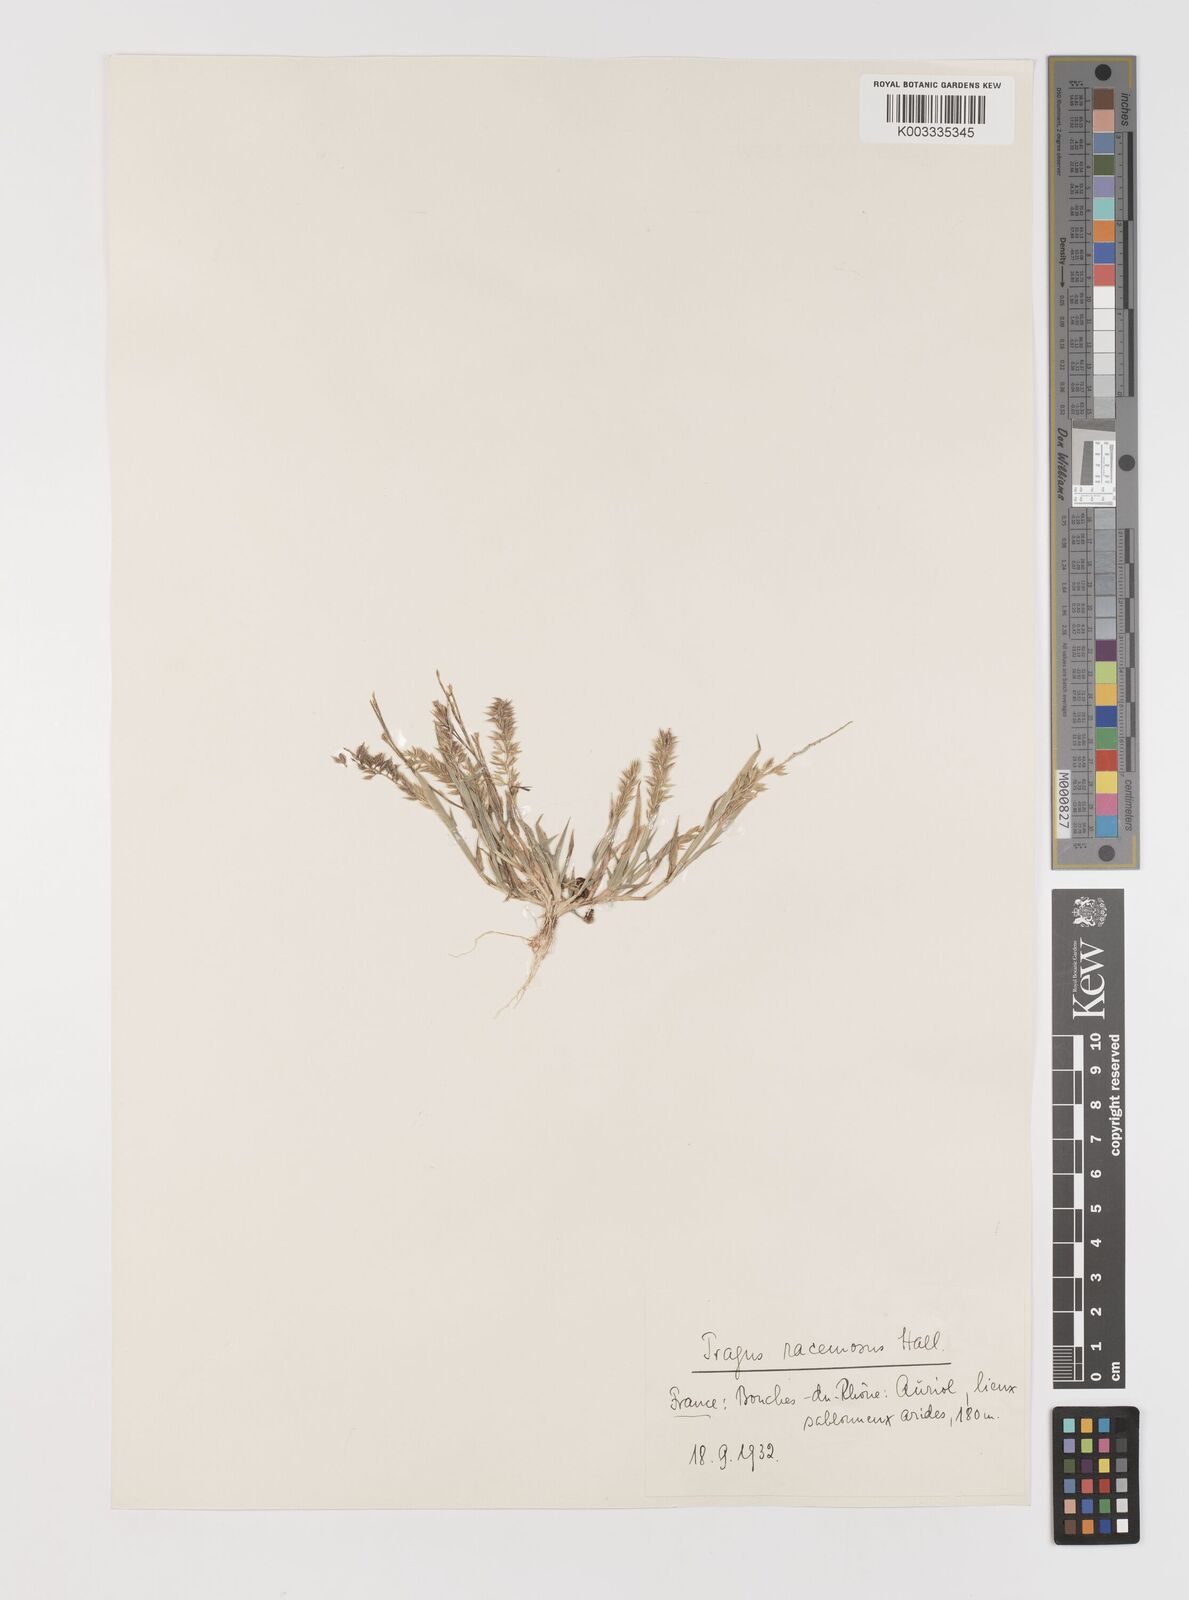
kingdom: Plantae
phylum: Tracheophyta
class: Liliopsida
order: Poales
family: Poaceae
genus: Tragus
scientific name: Tragus racemosus
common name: European bur-grass
